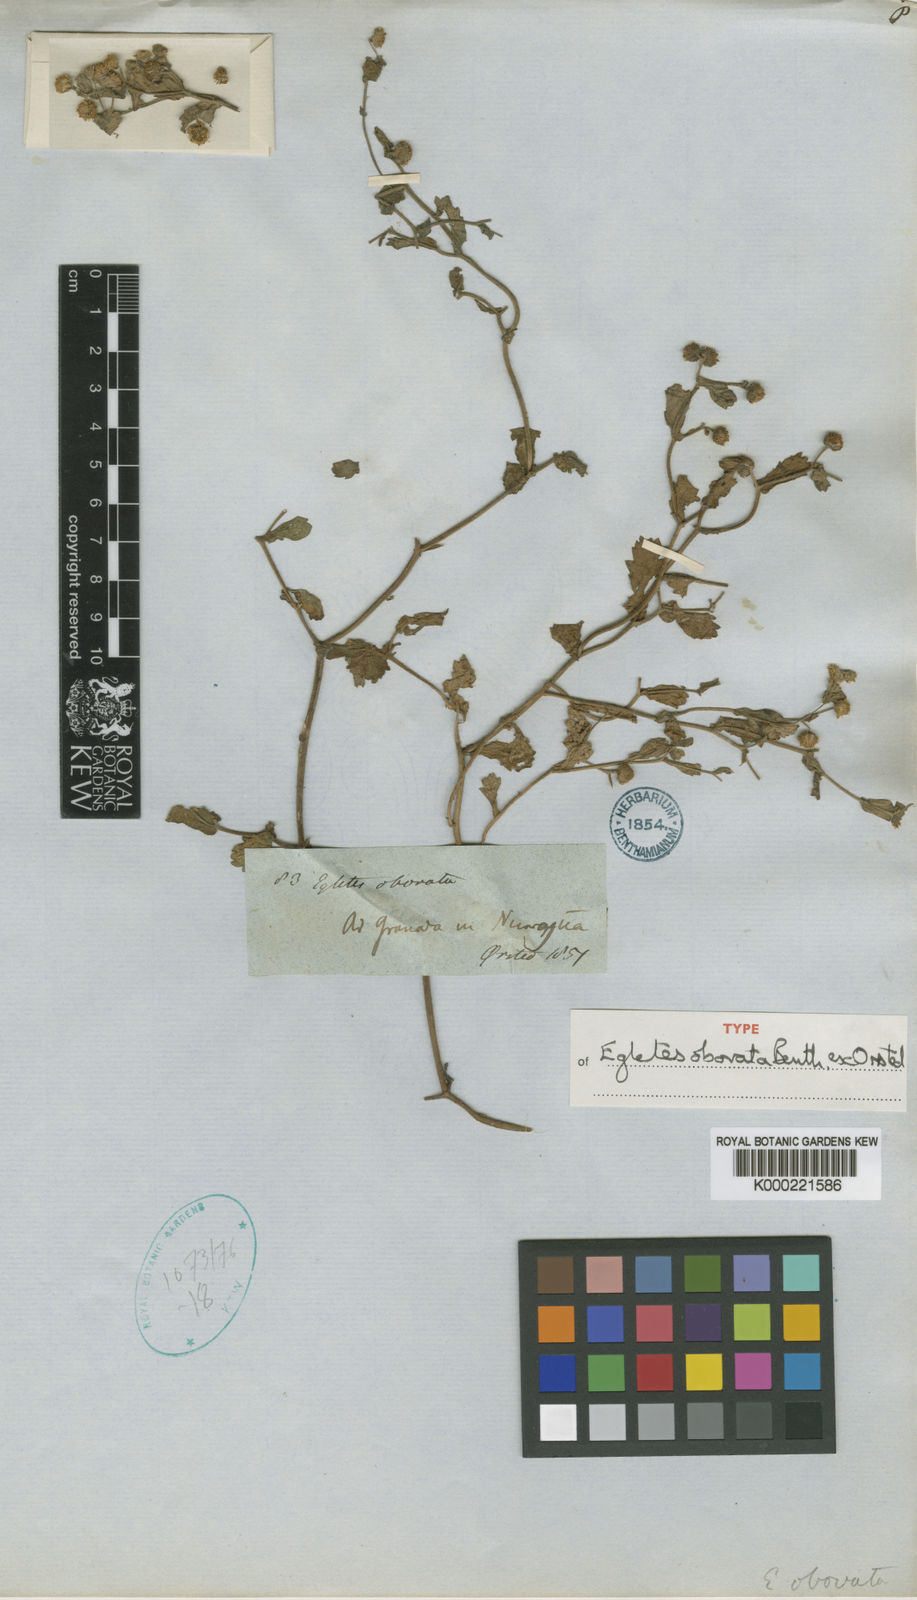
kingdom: Plantae
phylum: Tracheophyta
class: Magnoliopsida
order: Asterales
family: Asteraceae
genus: Egletes
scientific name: Egletes viscosa
